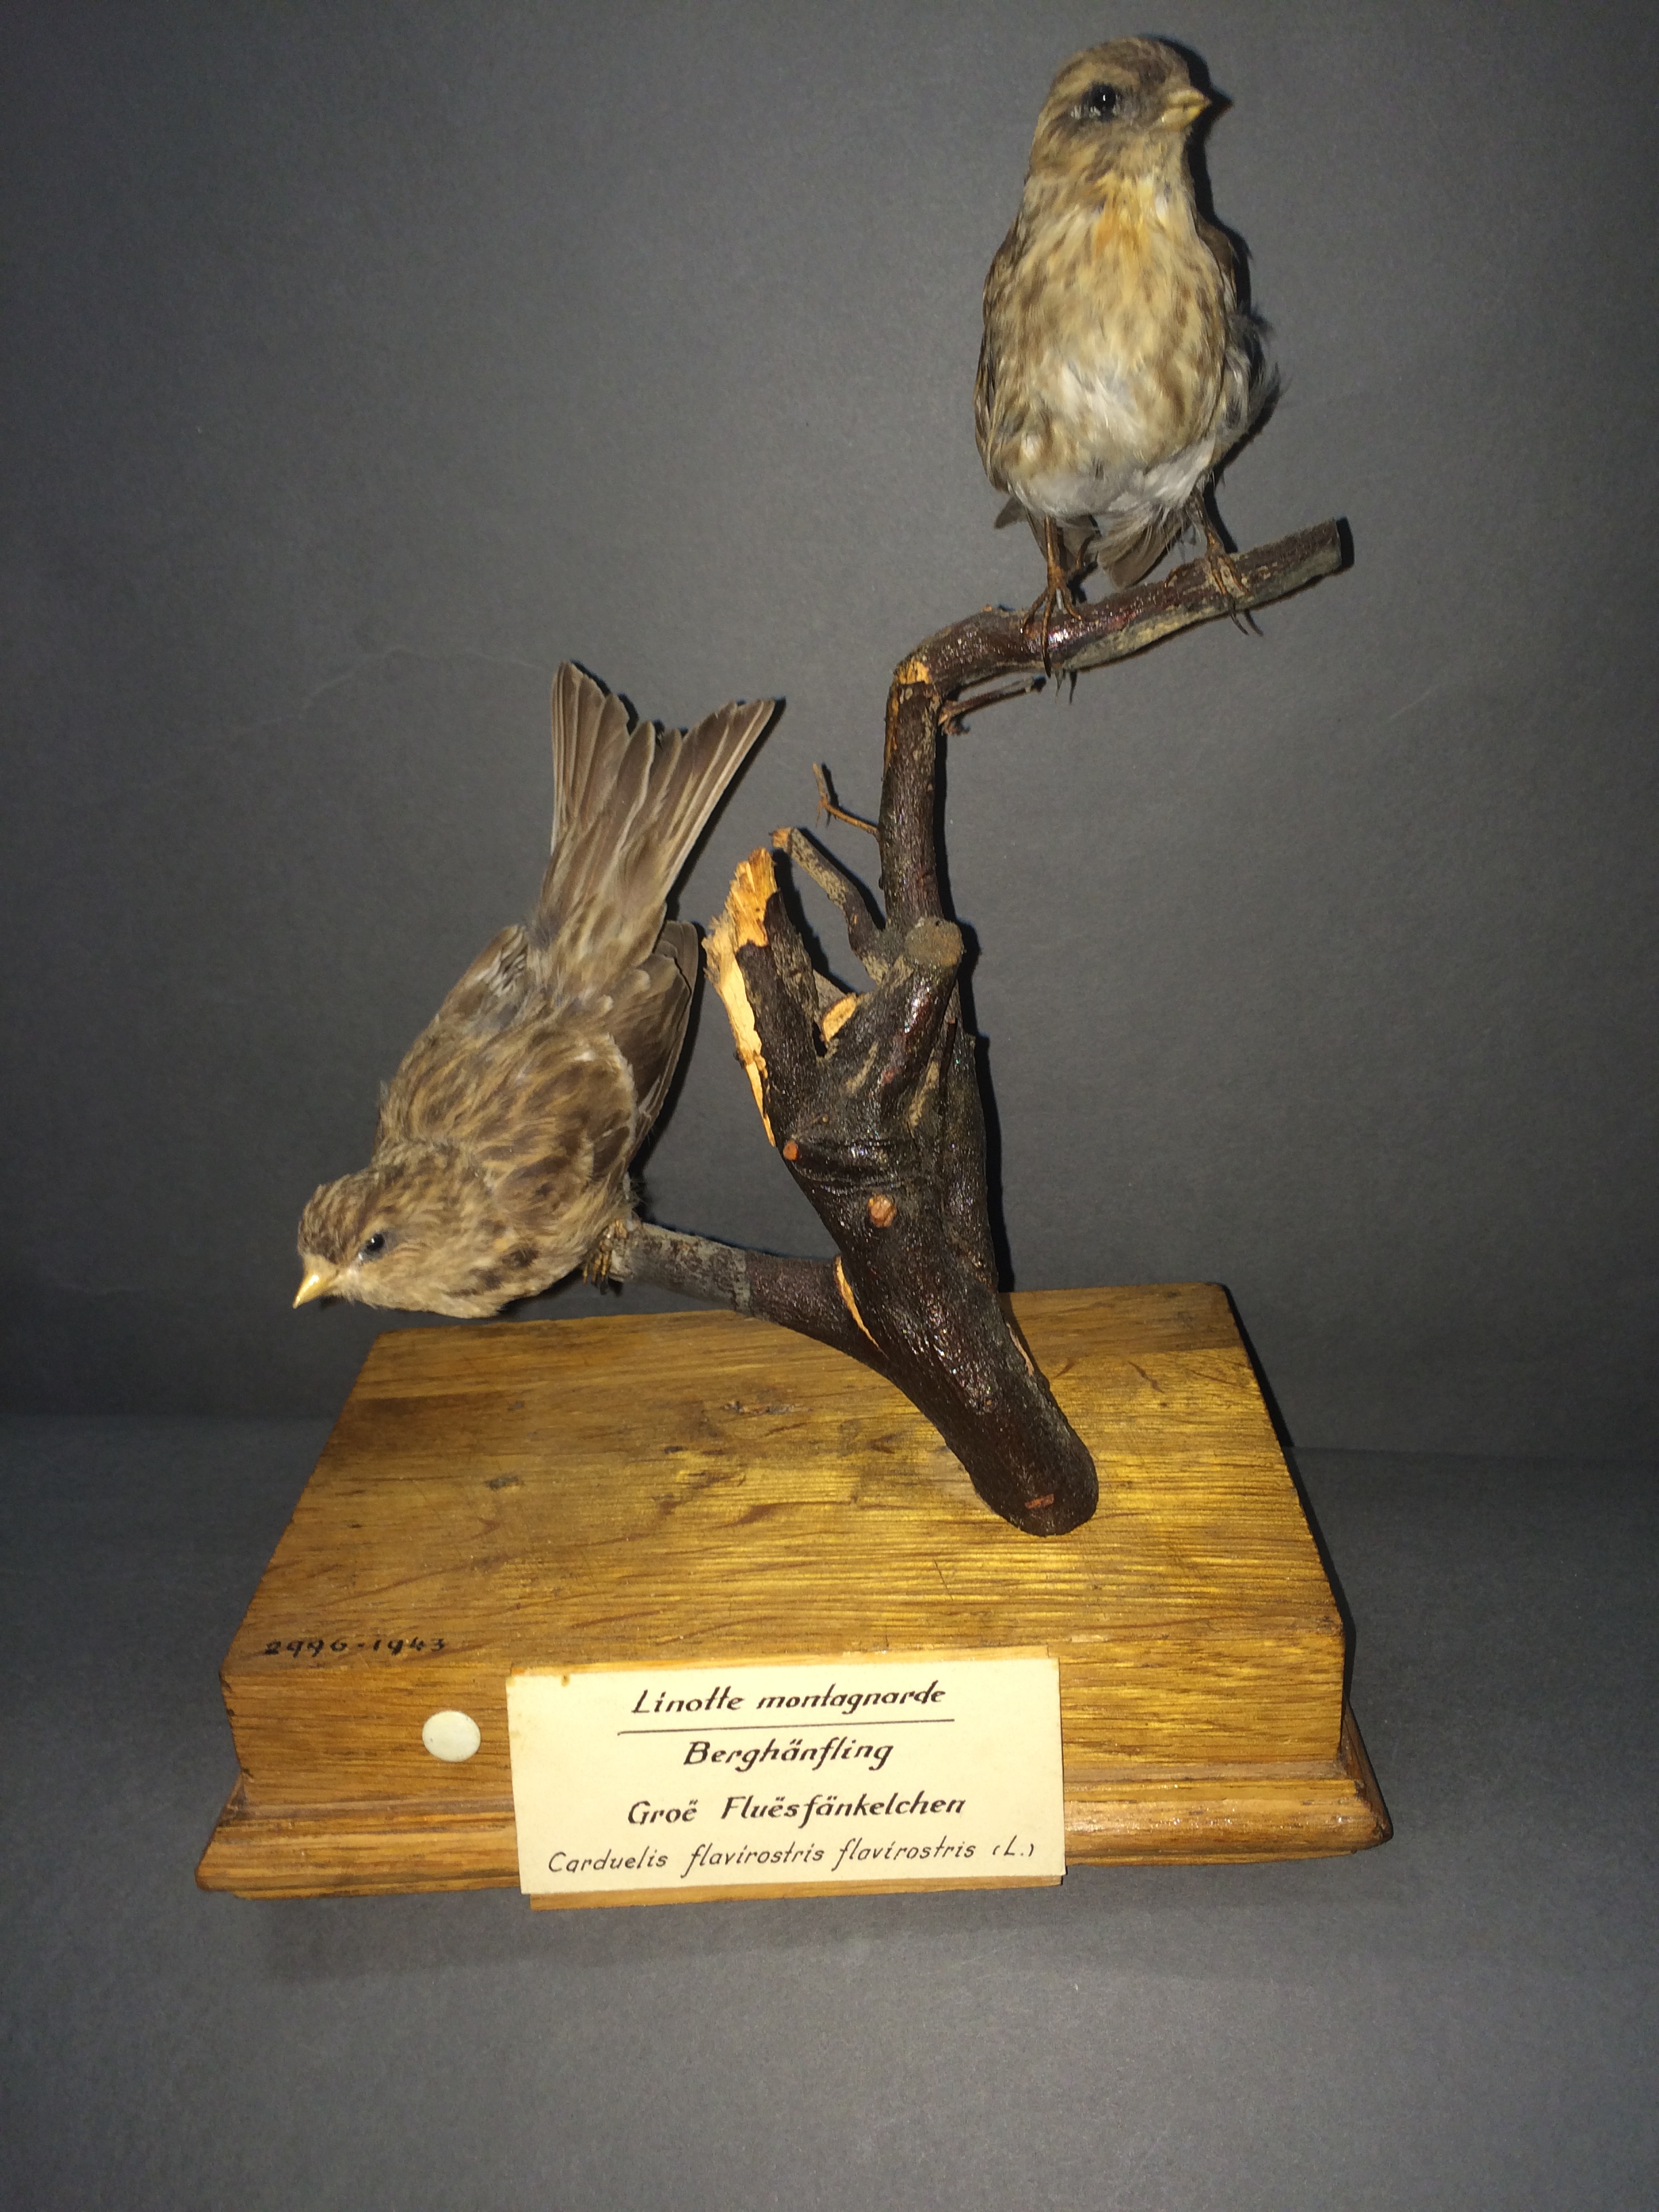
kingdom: Animalia
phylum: Chordata
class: Aves
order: Passeriformes
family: Fringillidae
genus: Linaria
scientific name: Linaria flavirostris
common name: Twite
